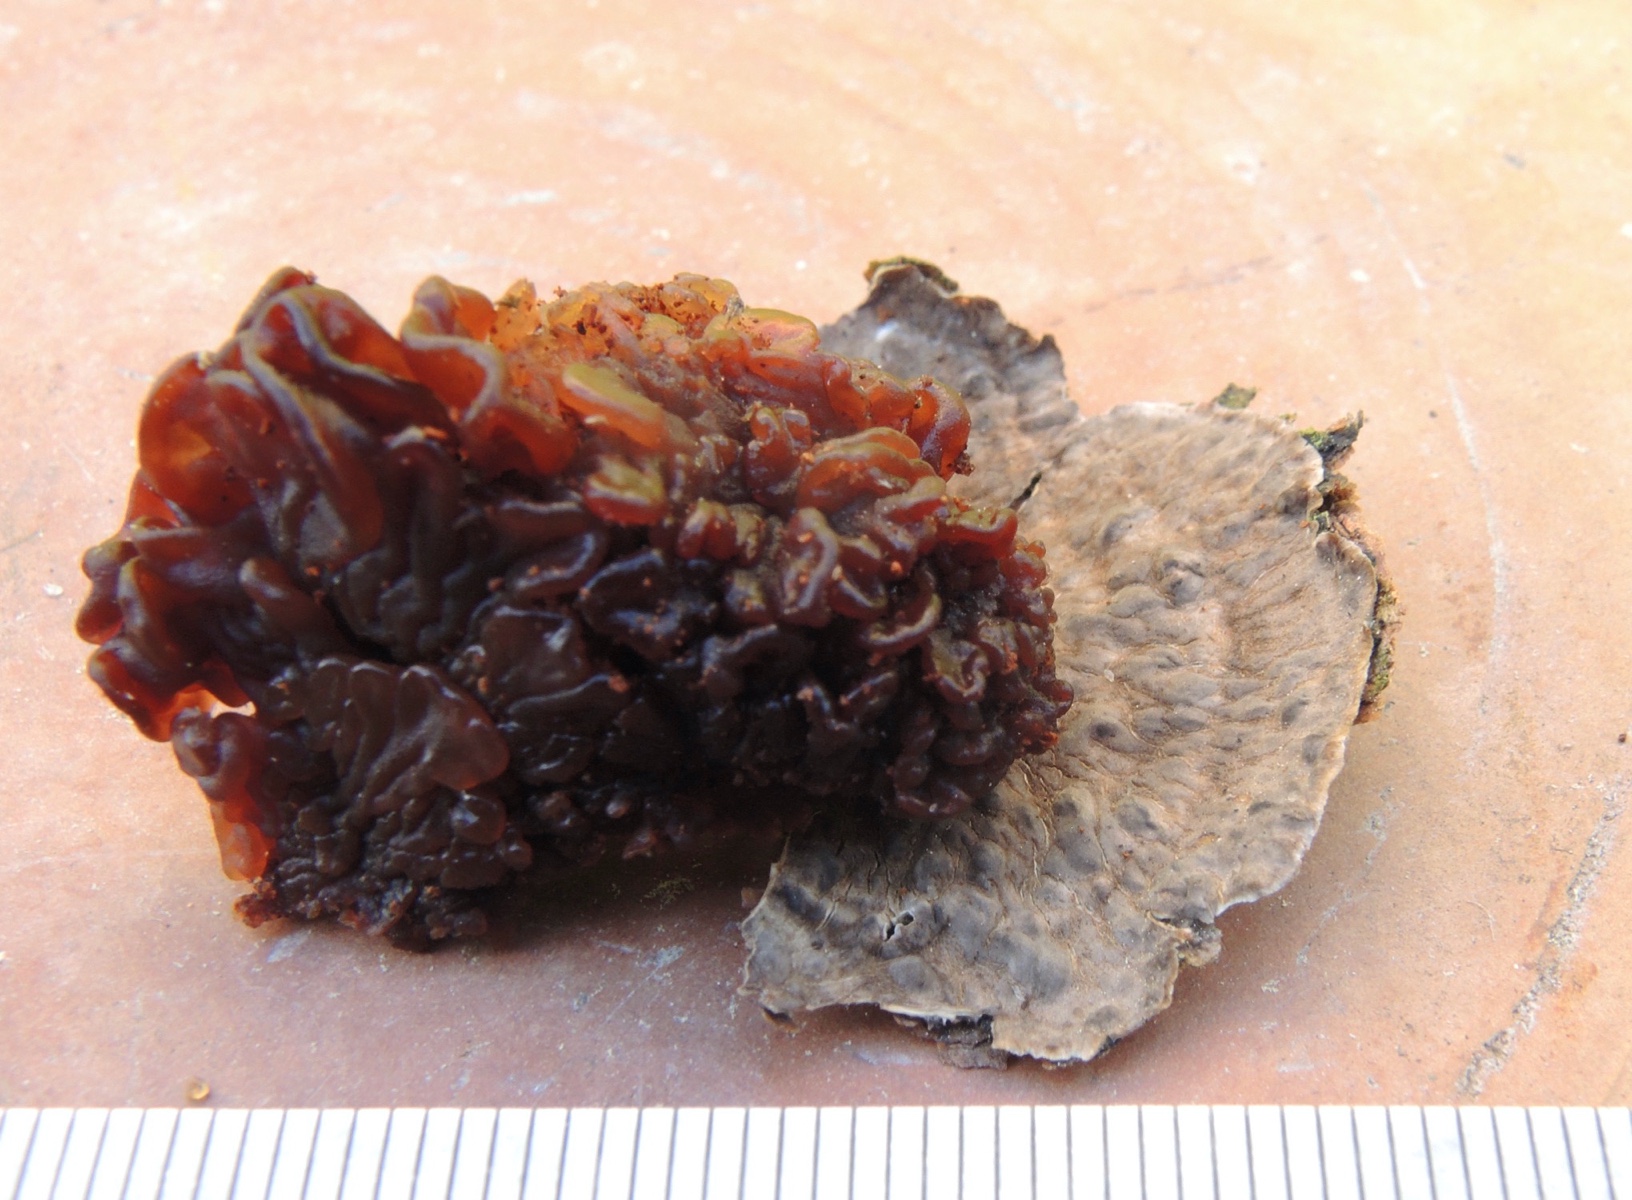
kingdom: Fungi
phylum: Basidiomycota
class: Agaricomycetes
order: Russulales
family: Stereaceae
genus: Stereum
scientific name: Stereum sanguinolentum
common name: blødende lædersvamp
